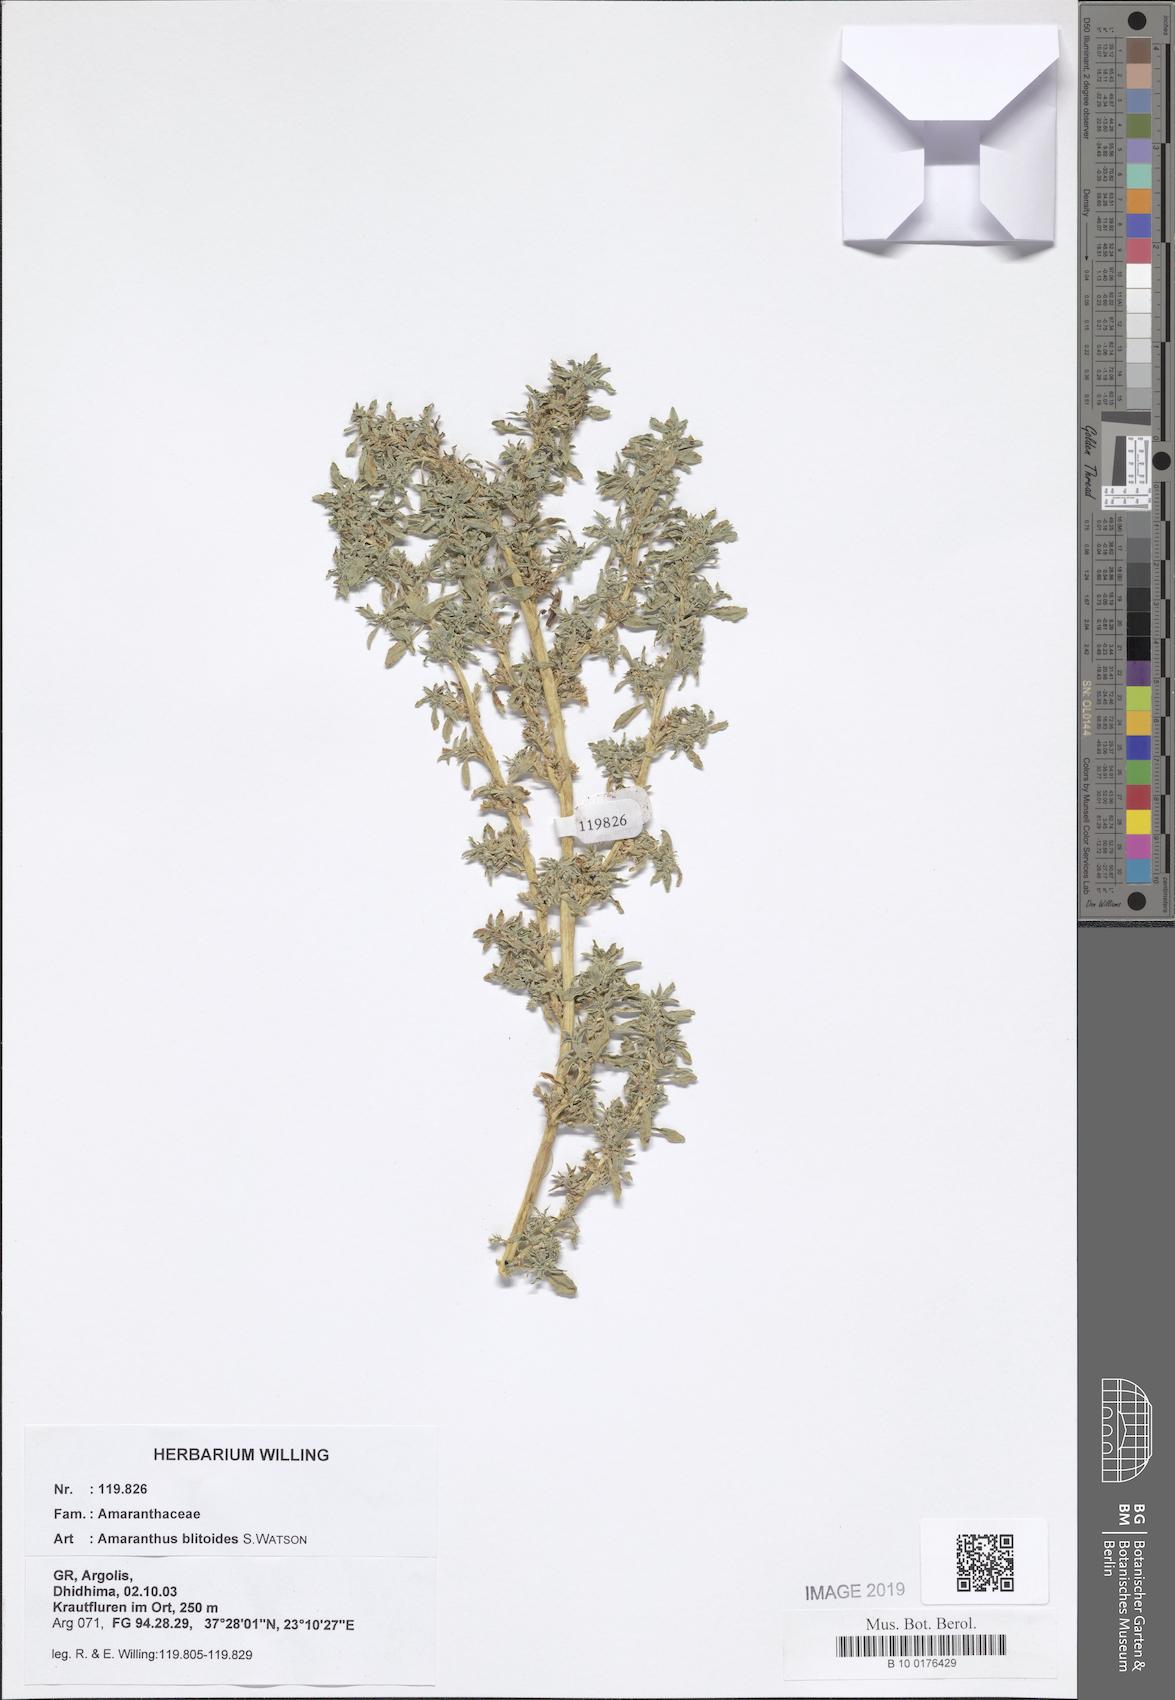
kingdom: Plantae
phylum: Tracheophyta
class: Magnoliopsida
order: Caryophyllales
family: Amaranthaceae
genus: Amaranthus
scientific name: Amaranthus blitoides
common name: Prostrate pigweed
